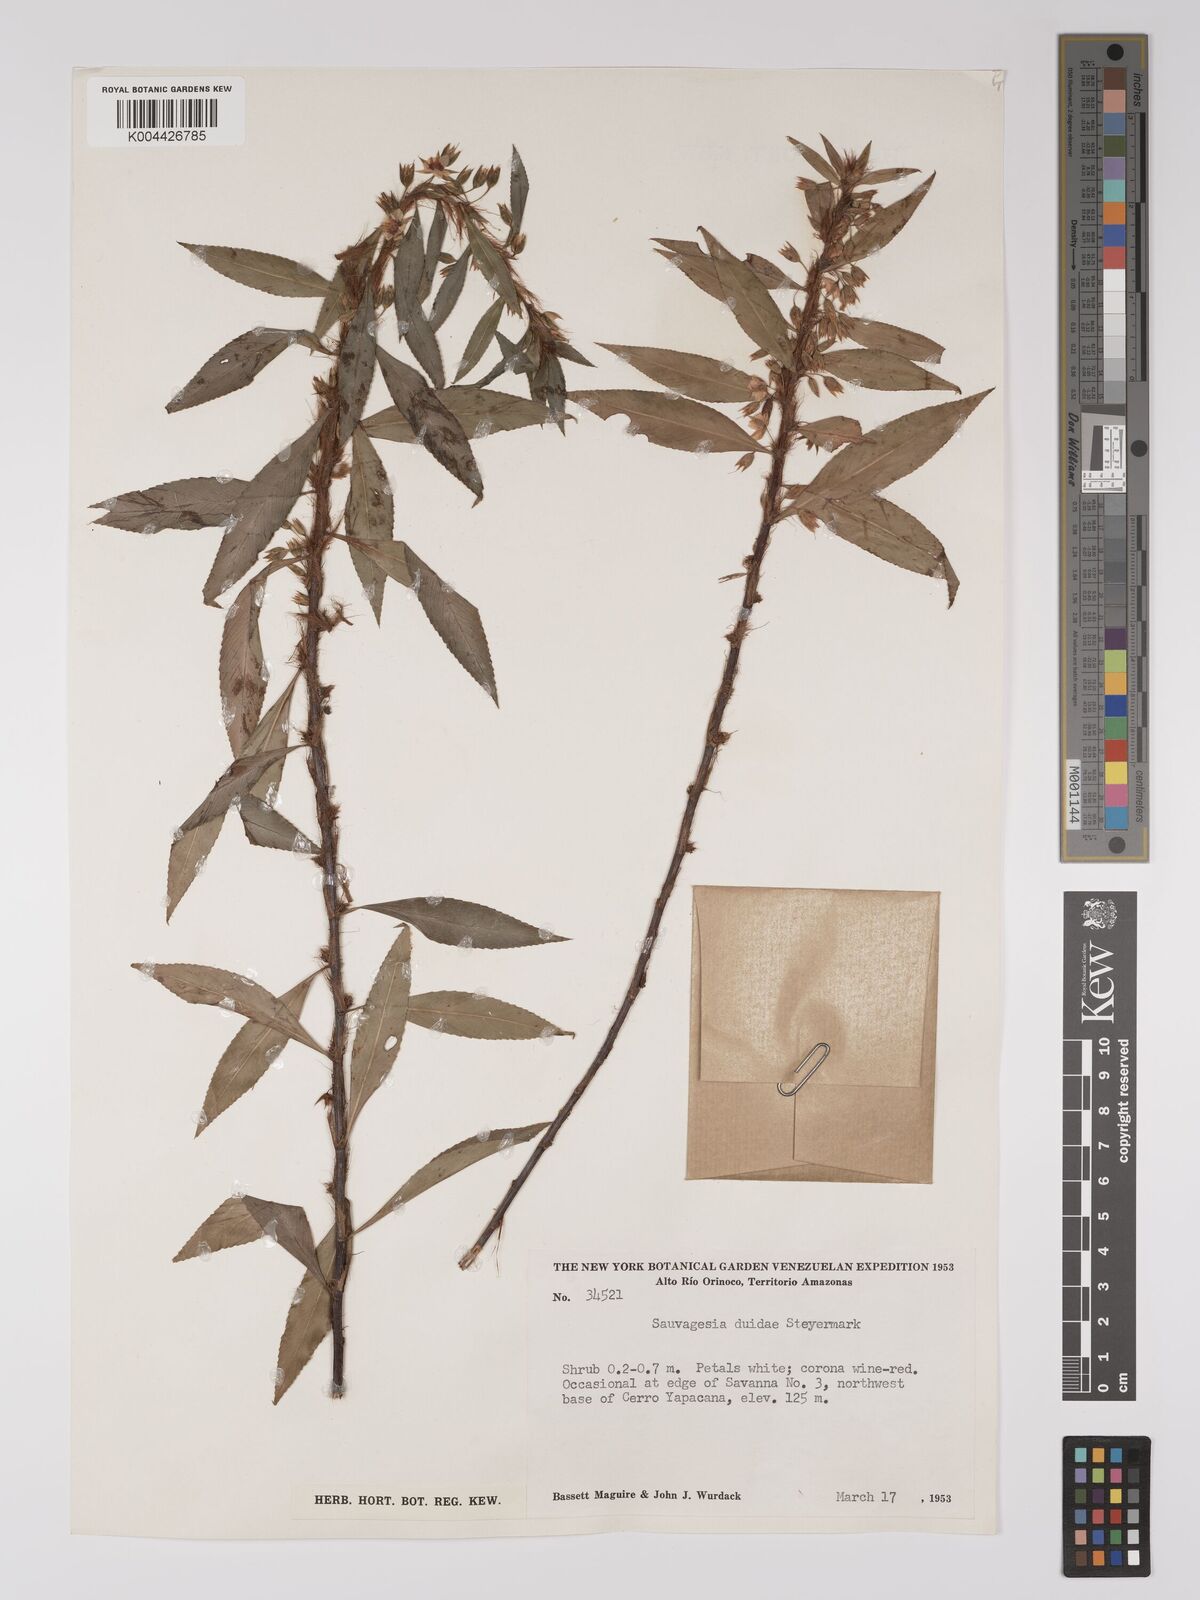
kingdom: Plantae
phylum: Tracheophyta
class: Magnoliopsida
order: Malpighiales
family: Ochnaceae
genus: Sauvagesia
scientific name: Sauvagesia erioclada
